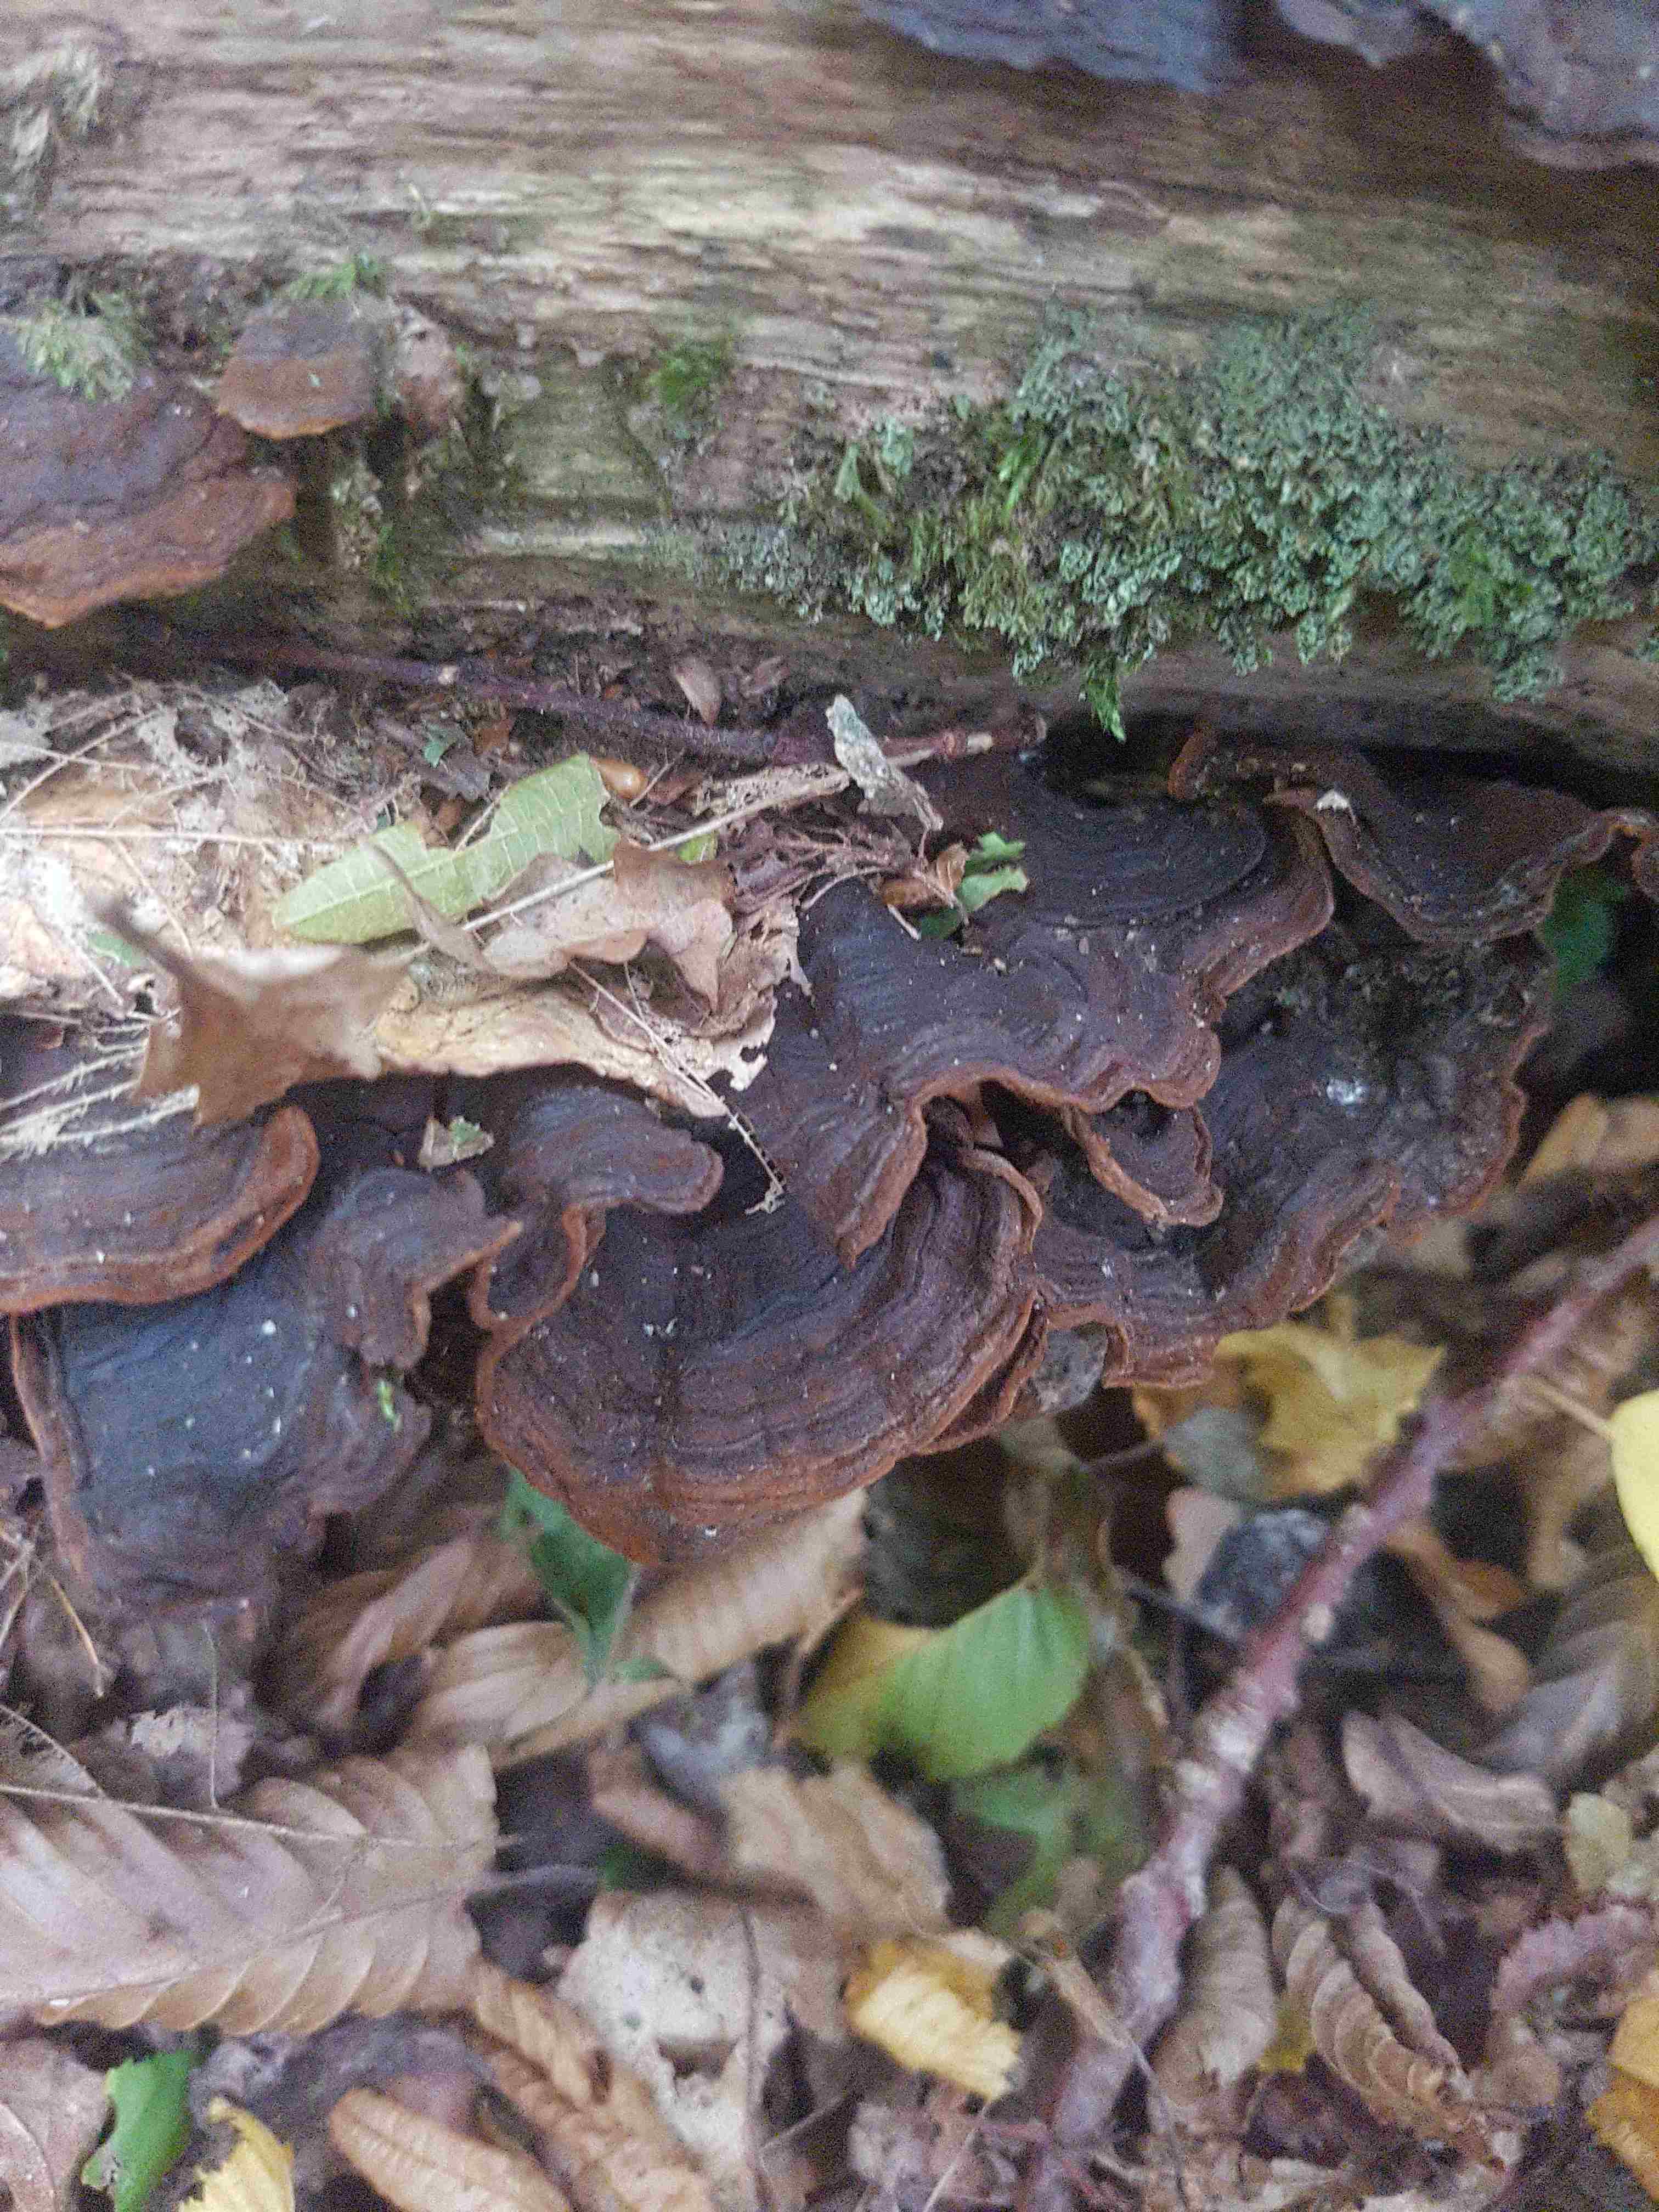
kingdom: Fungi
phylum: Basidiomycota
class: Agaricomycetes
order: Hymenochaetales
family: Hymenochaetaceae
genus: Hymenochaete
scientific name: Hymenochaete rubiginosa
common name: stiv ruslædersvamp
